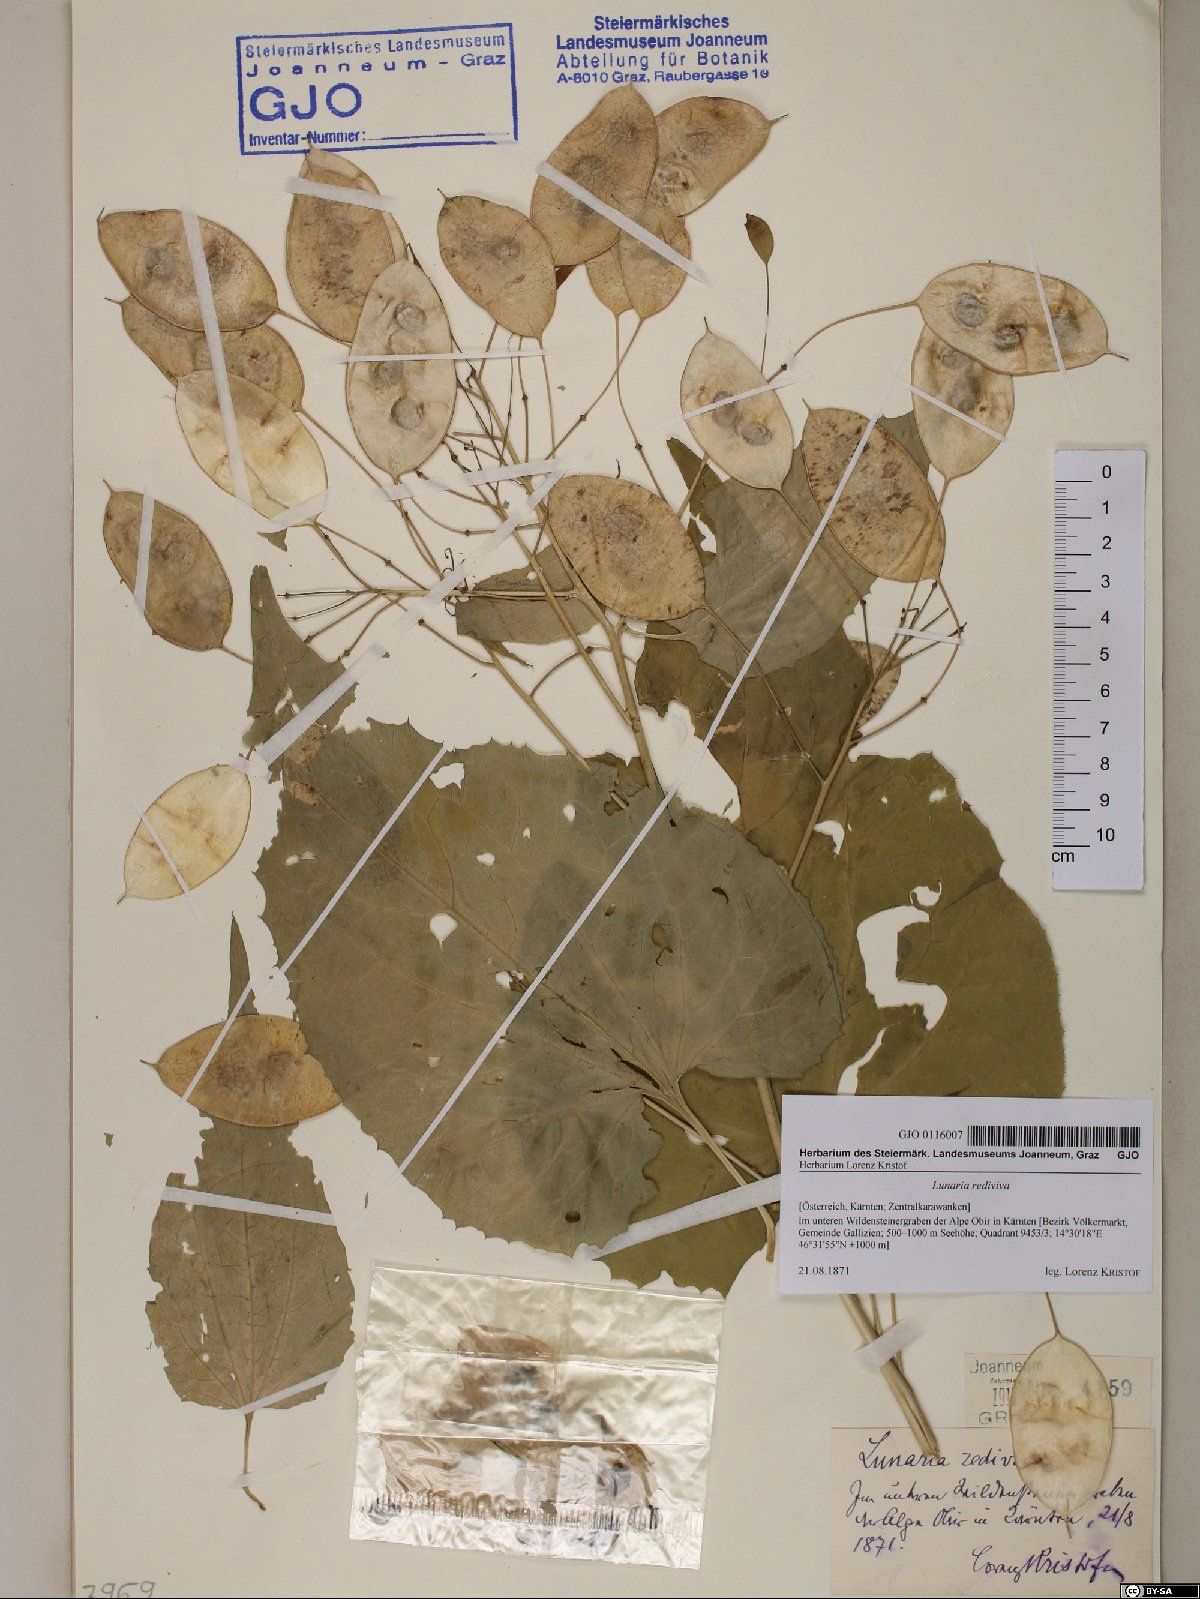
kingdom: Plantae
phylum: Tracheophyta
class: Magnoliopsida
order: Brassicales
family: Brassicaceae
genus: Lunaria
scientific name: Lunaria rediviva
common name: Perennial honesty
